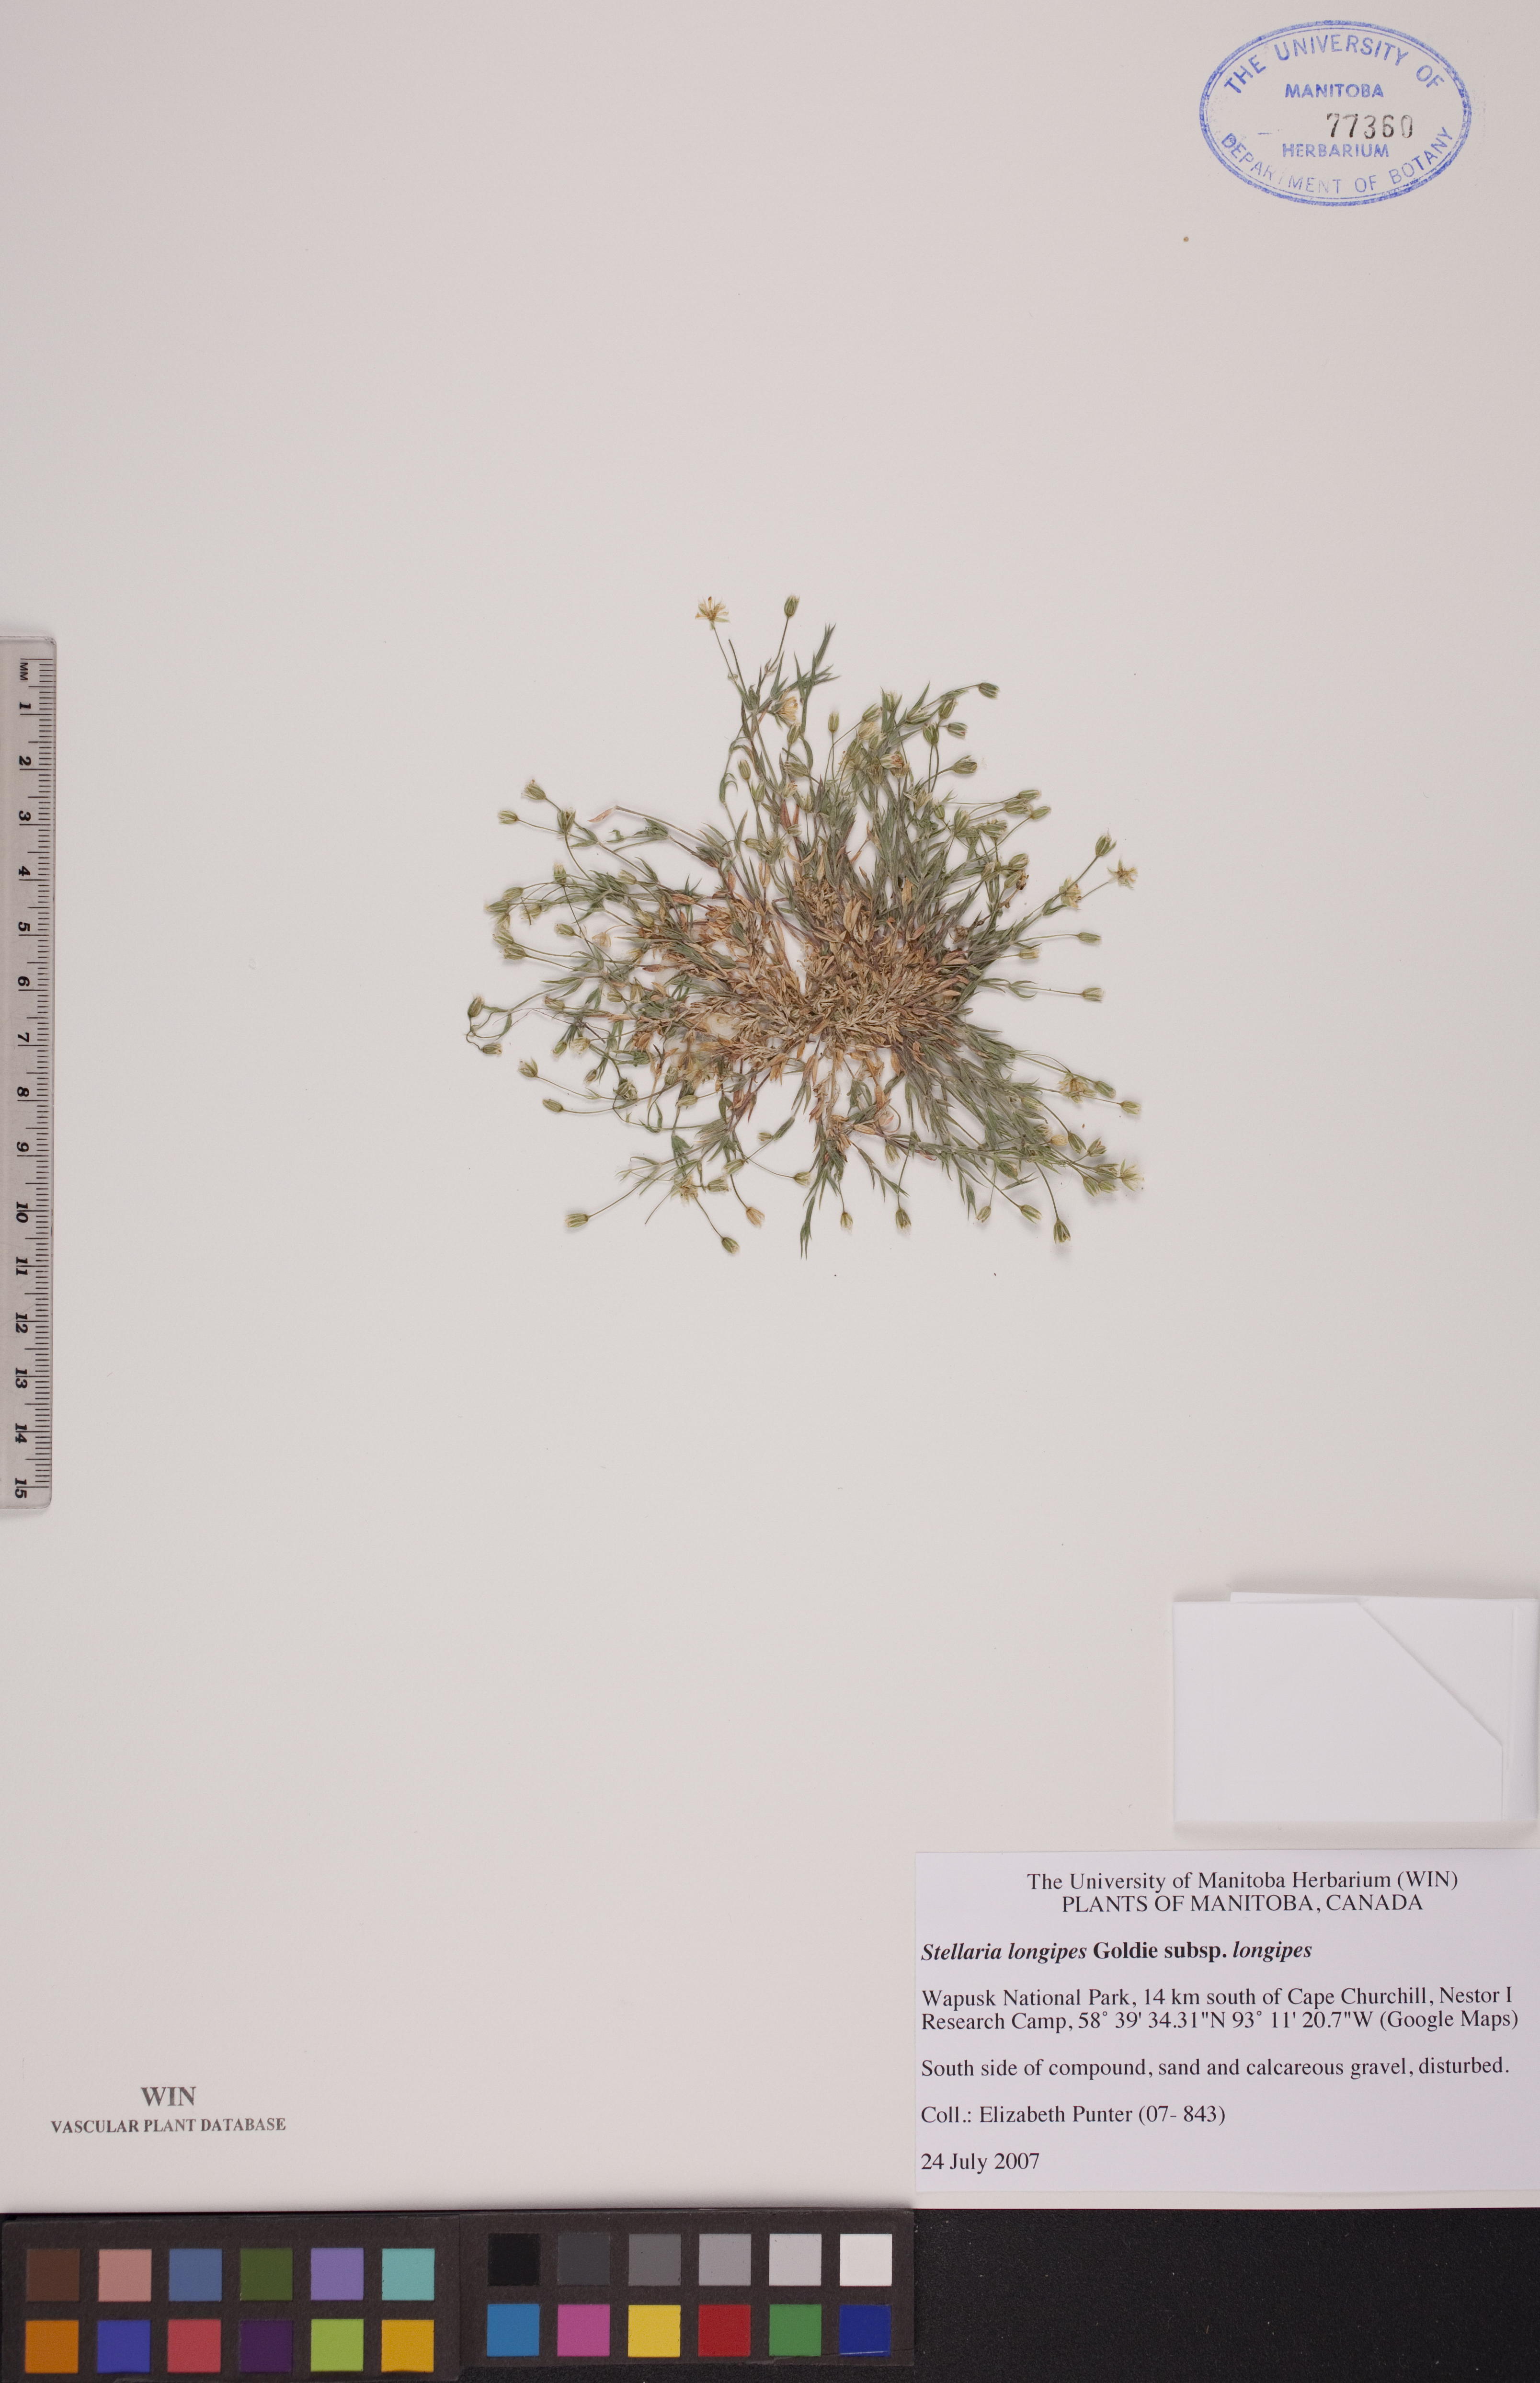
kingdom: Plantae
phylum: Tracheophyta
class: Magnoliopsida
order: Caryophyllales
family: Caryophyllaceae
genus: Stellaria
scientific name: Stellaria longipes
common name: Goldie's starwort
